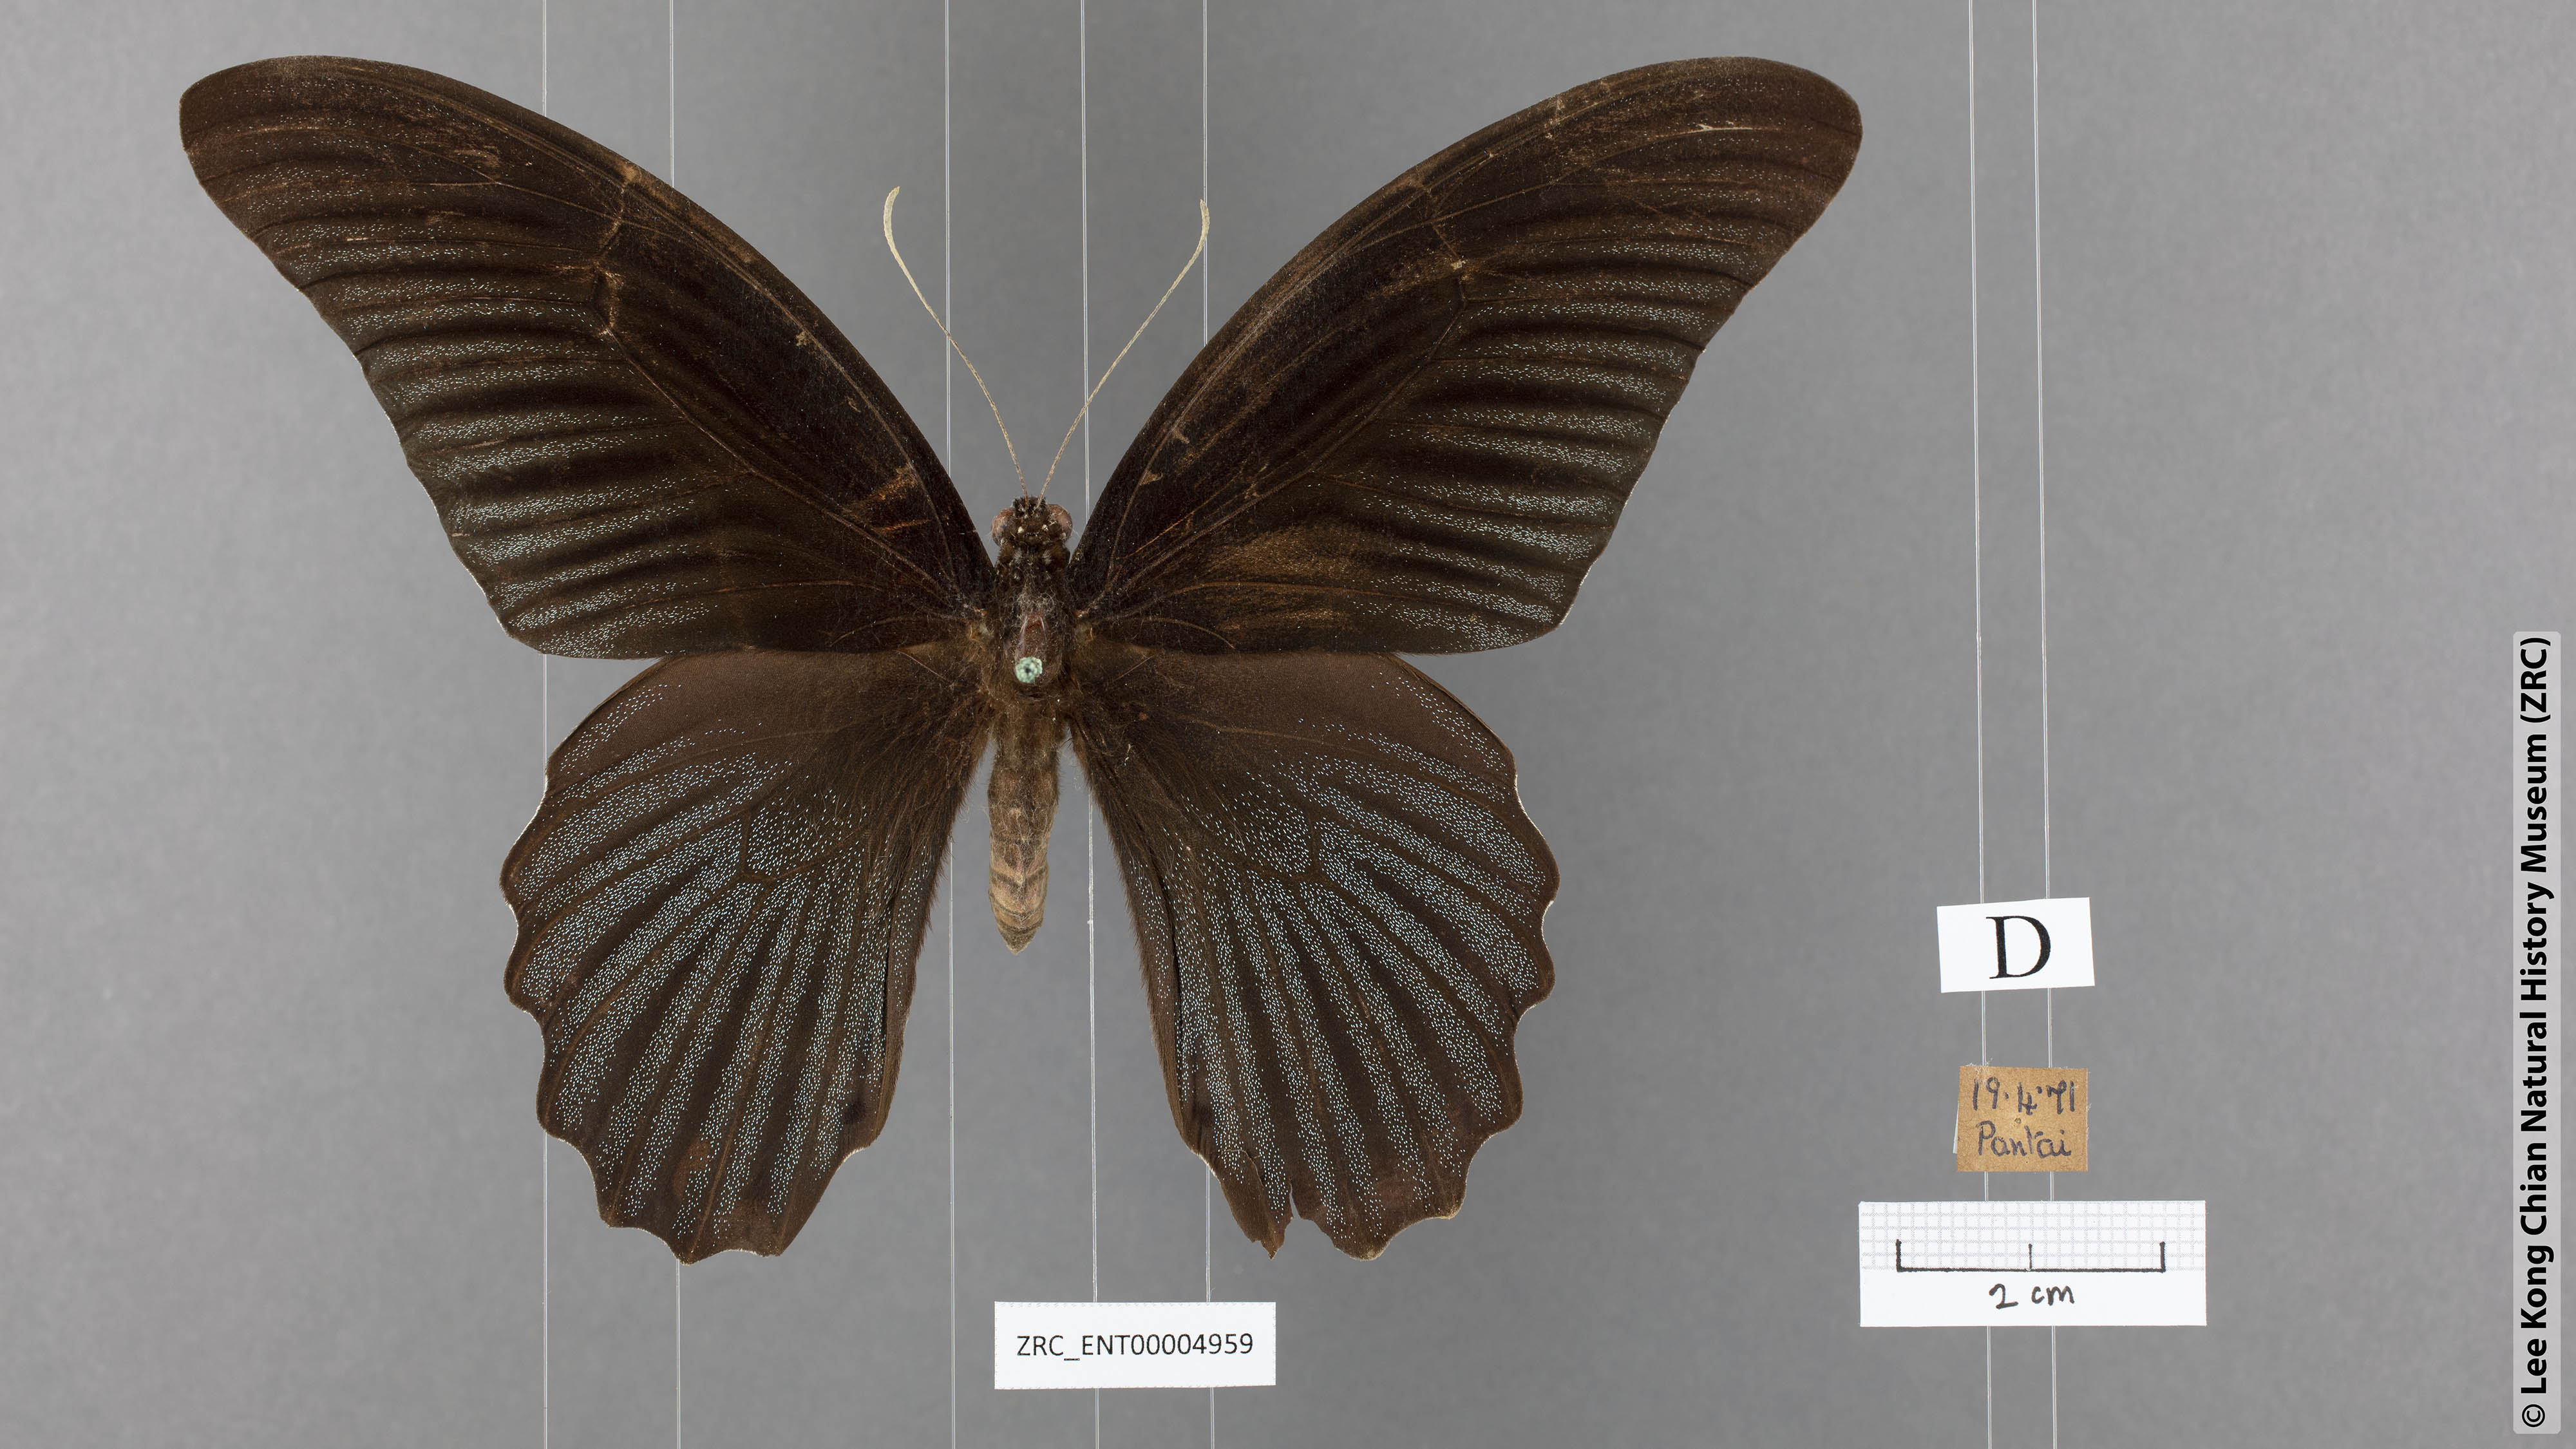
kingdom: Animalia
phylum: Arthropoda
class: Insecta
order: Lepidoptera
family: Papilionidae
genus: Papilio
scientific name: Papilio memnon
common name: Great mormon
